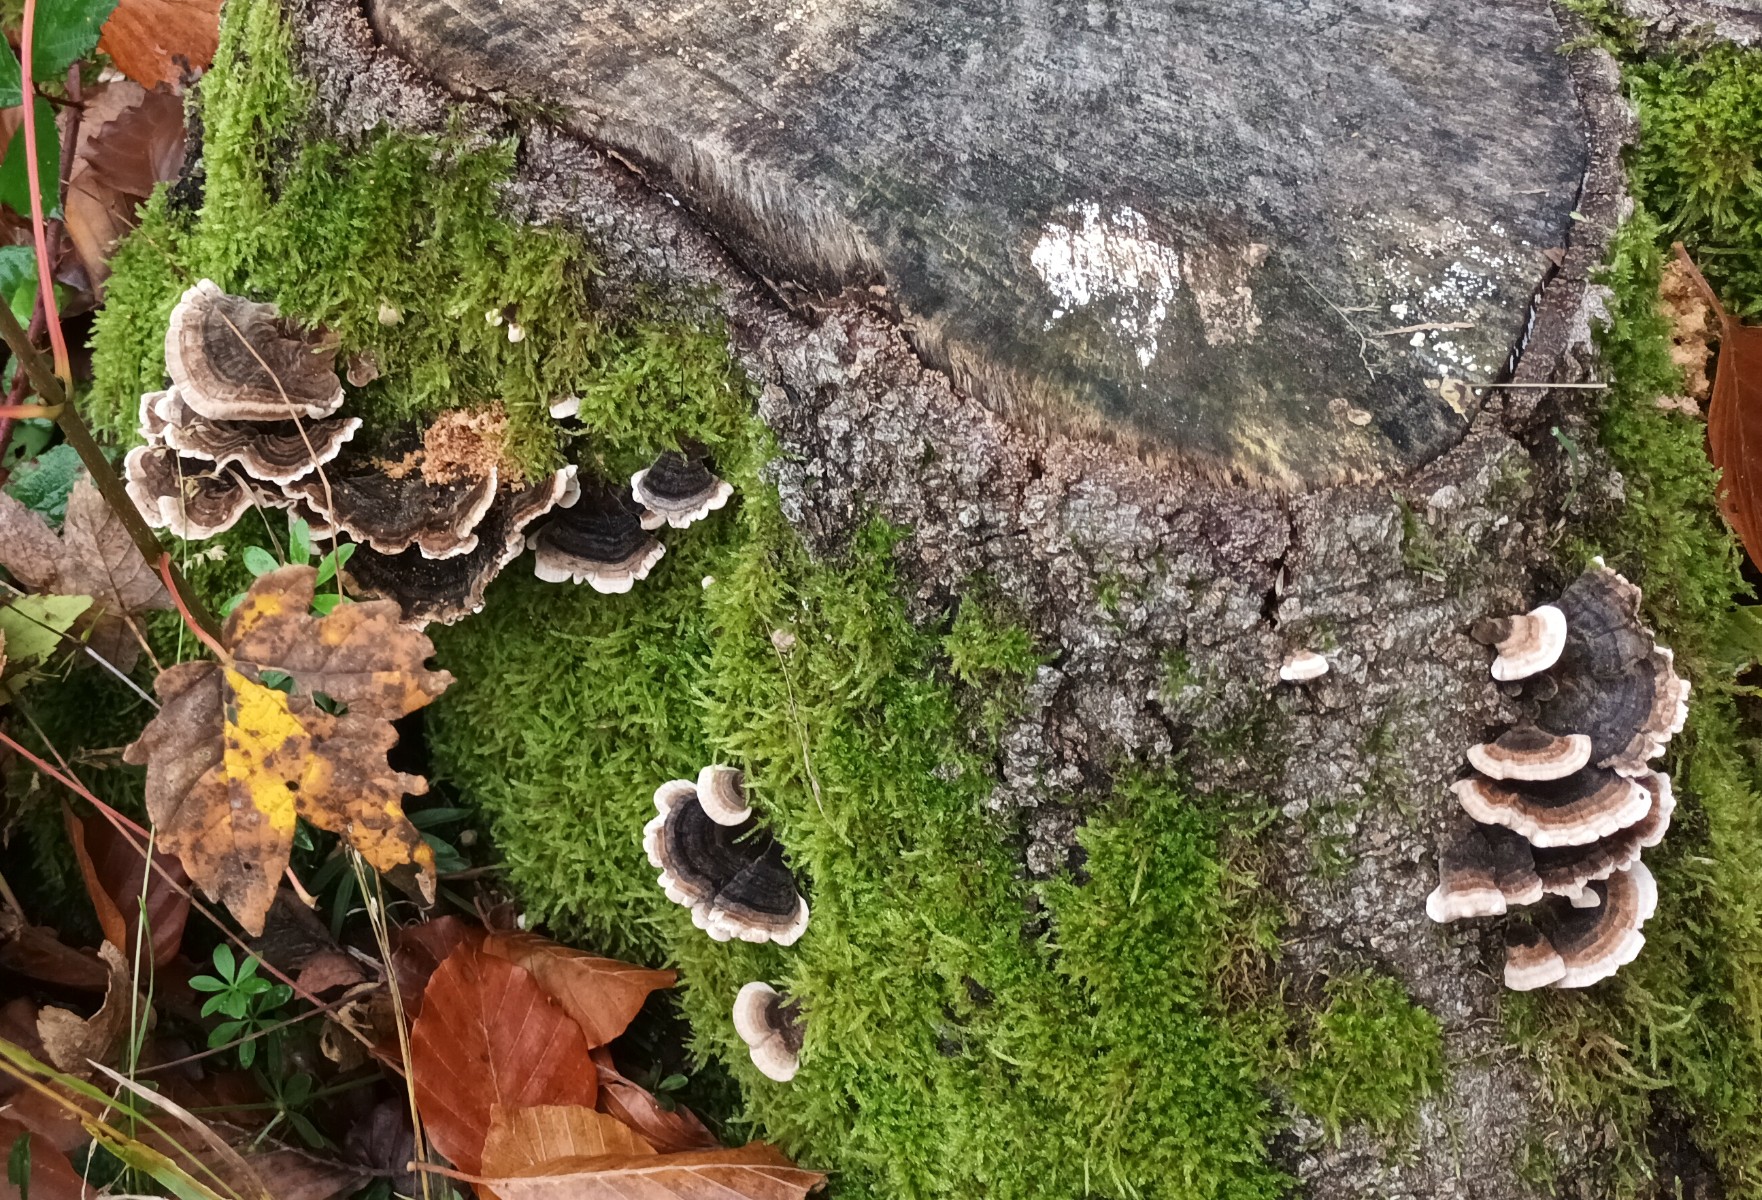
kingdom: Fungi
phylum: Basidiomycota
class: Agaricomycetes
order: Polyporales
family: Polyporaceae
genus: Trametes
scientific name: Trametes versicolor
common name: broget læderporesvamp
